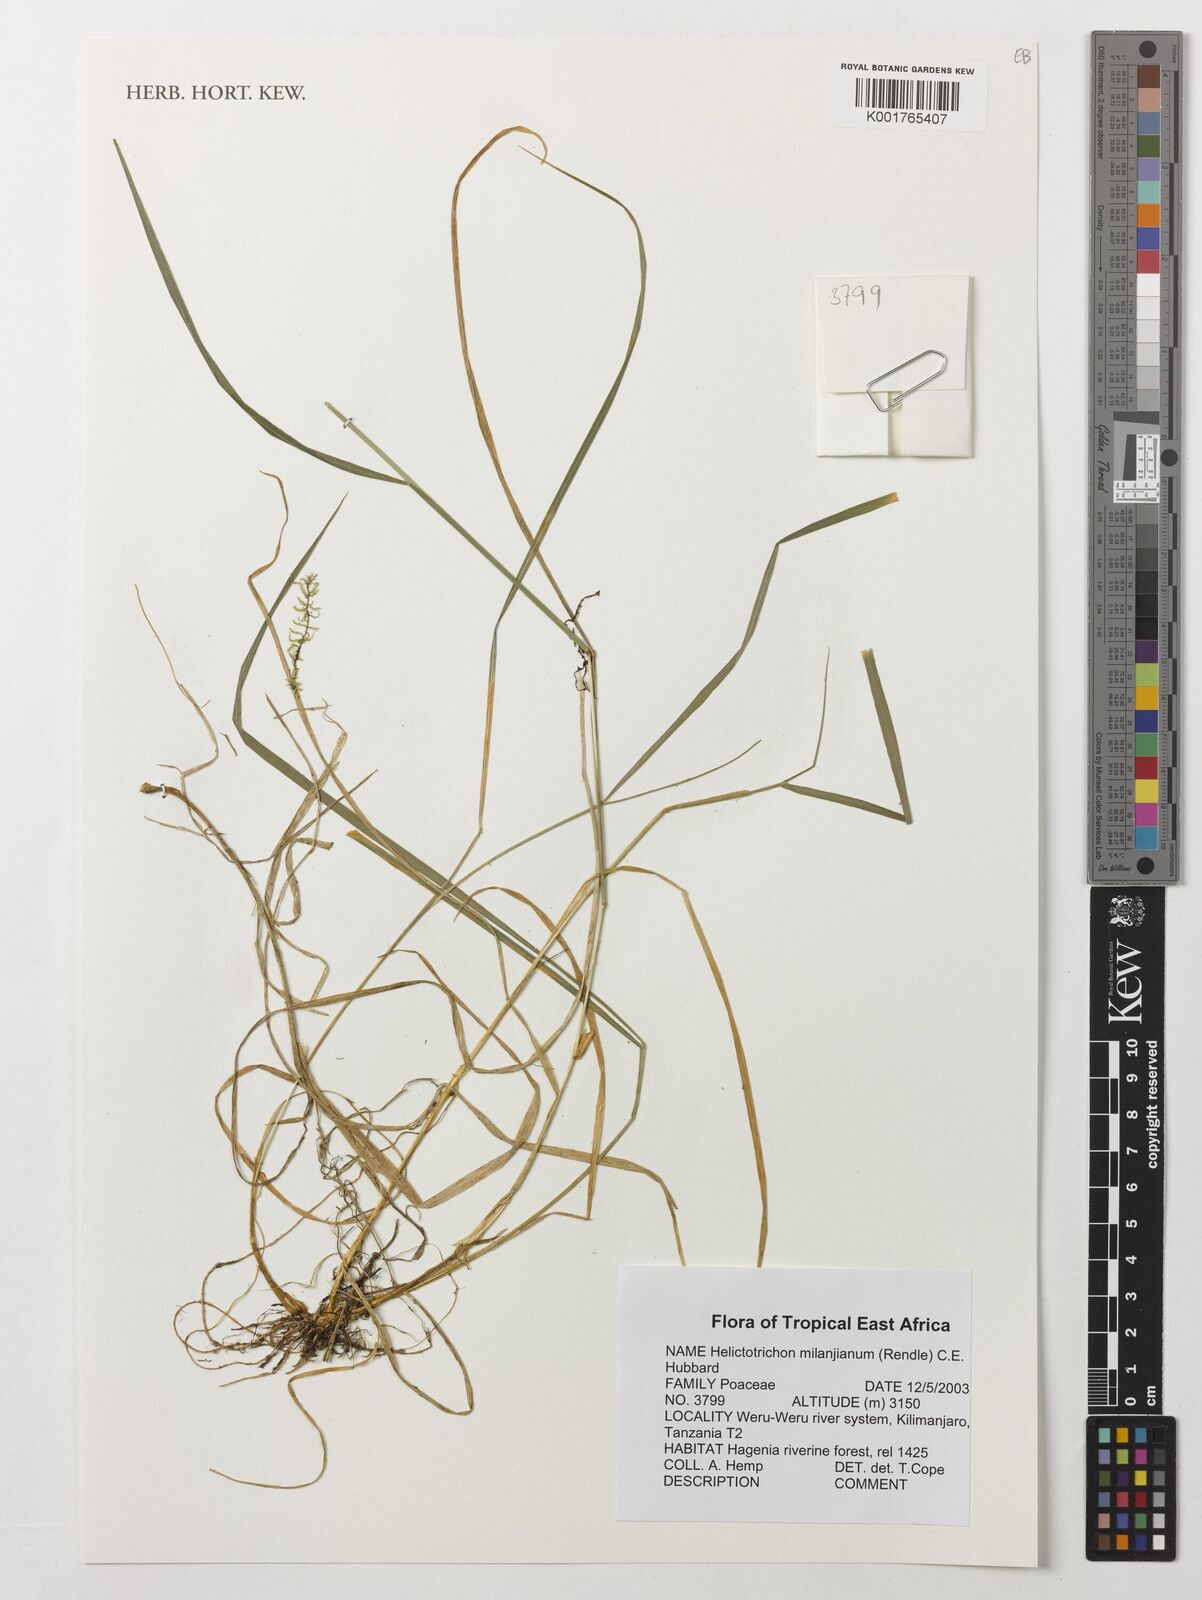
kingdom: Plantae
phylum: Tracheophyta
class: Liliopsida
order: Poales
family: Poaceae
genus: Trisetopsis
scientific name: Trisetopsis milanjiana
